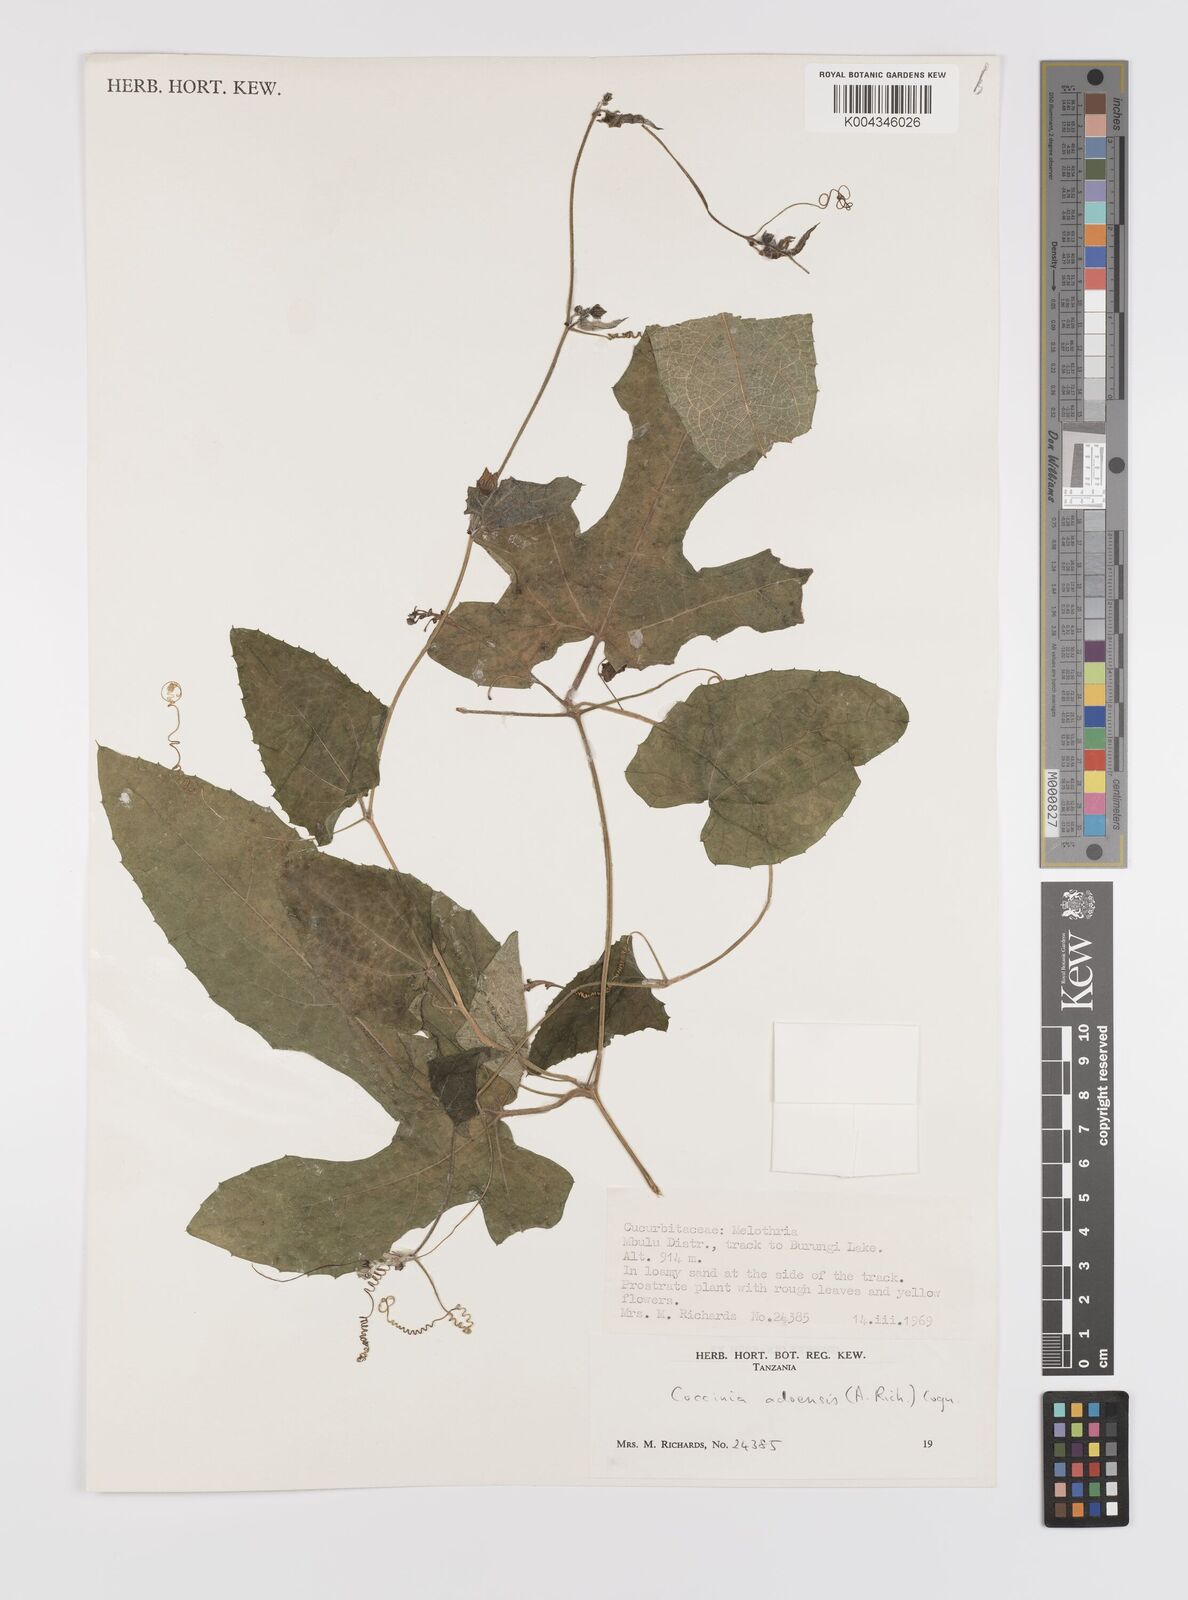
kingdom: Plantae
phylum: Tracheophyta
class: Magnoliopsida
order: Cucurbitales
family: Cucurbitaceae
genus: Coccinia
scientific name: Coccinia adoensis
